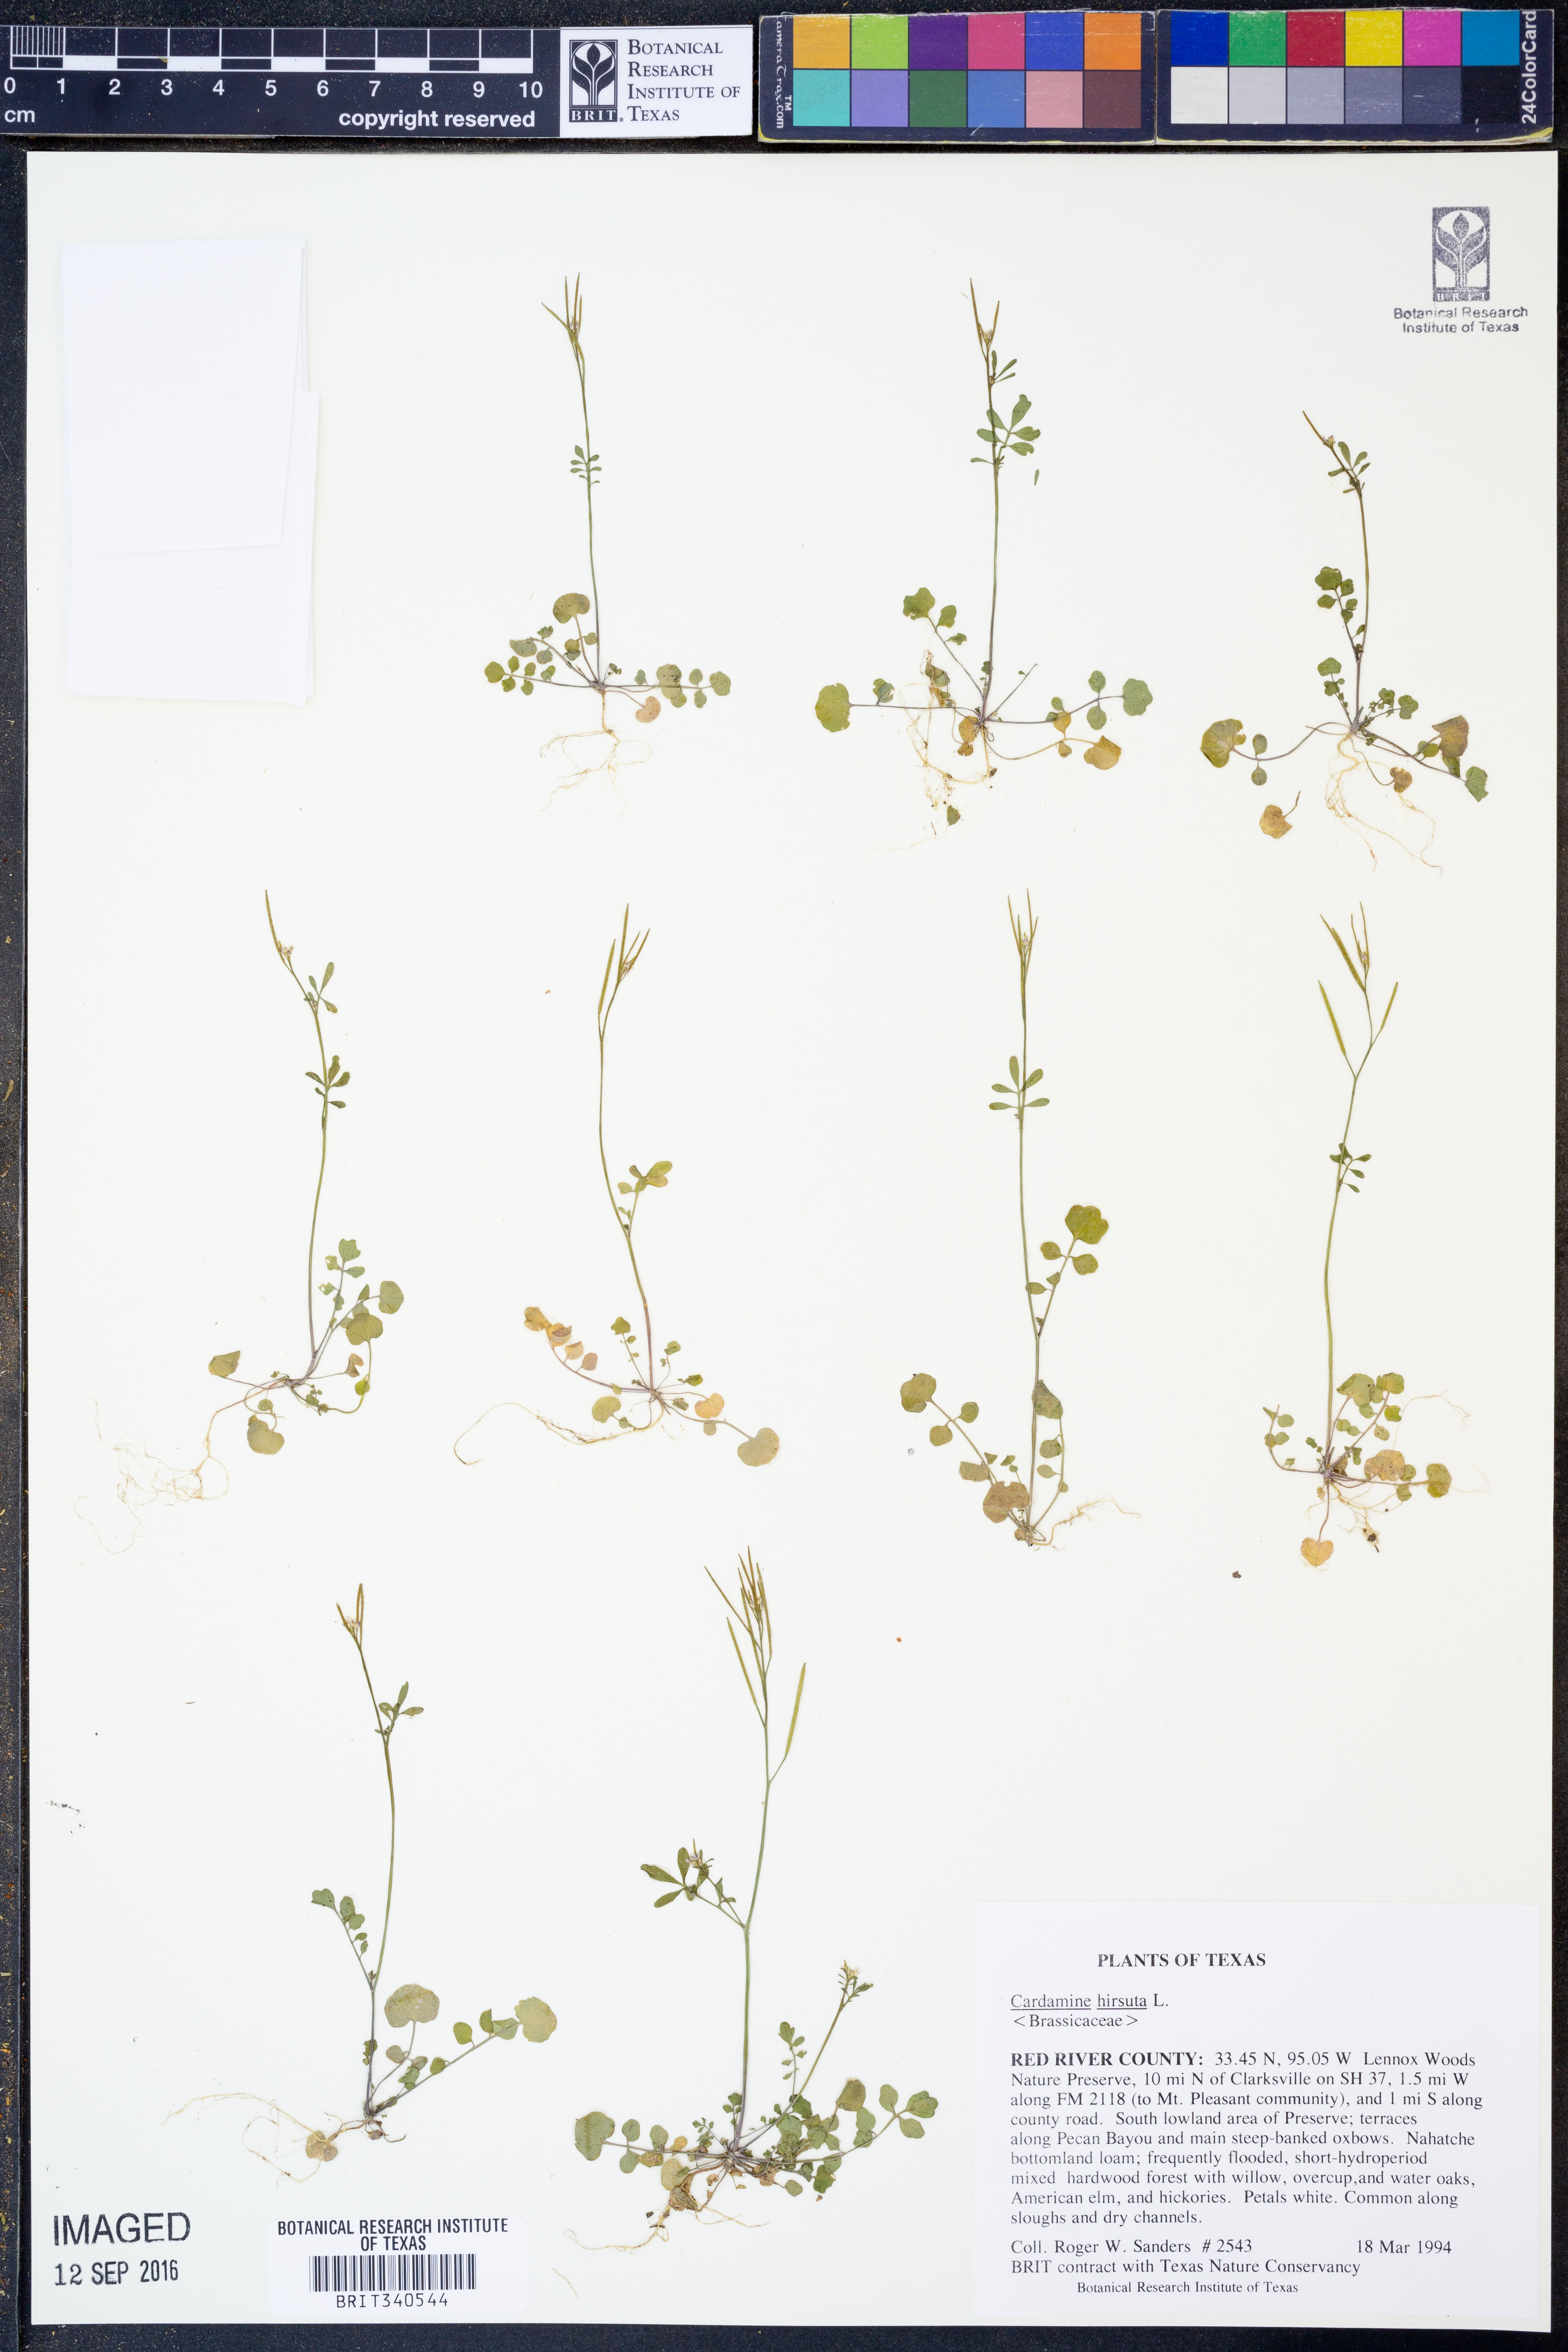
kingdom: Plantae
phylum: Tracheophyta
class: Magnoliopsida
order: Brassicales
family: Brassicaceae
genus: Cardamine
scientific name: Cardamine hirsuta
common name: Hairy bittercress
